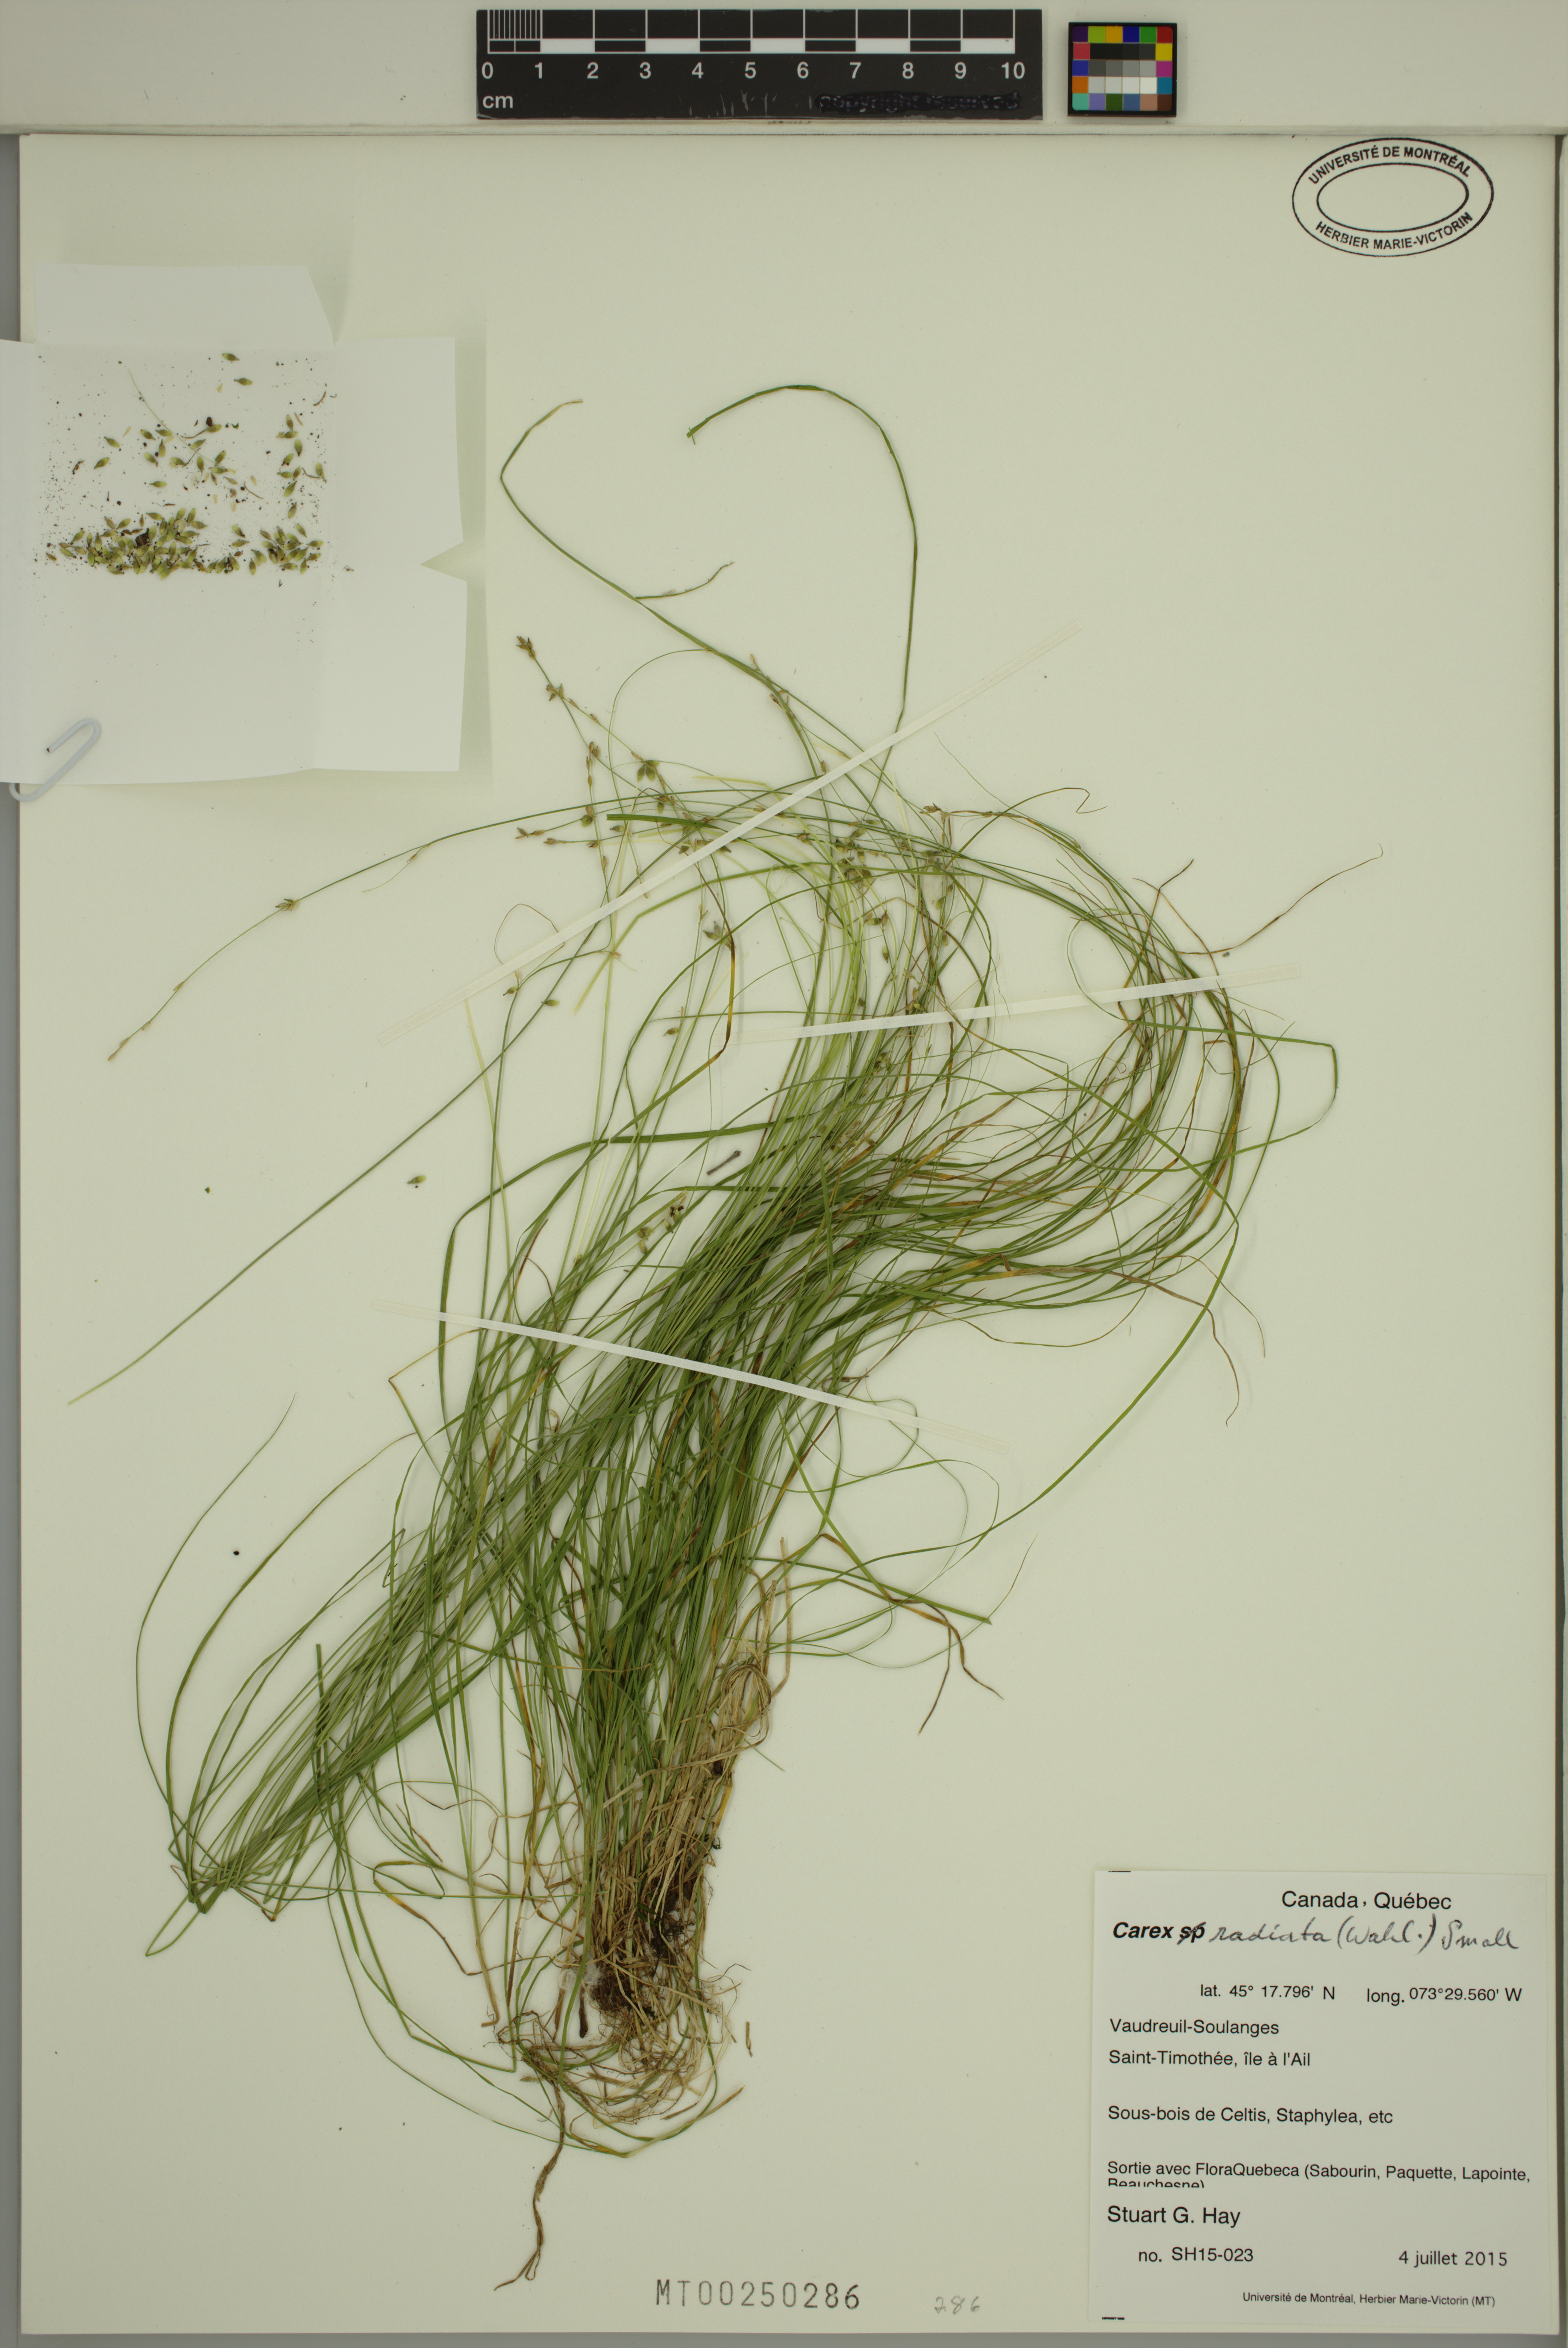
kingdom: Plantae
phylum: Tracheophyta
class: Liliopsida
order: Poales
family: Cyperaceae
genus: Carex
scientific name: Carex radiata
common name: Eastern star sedge
